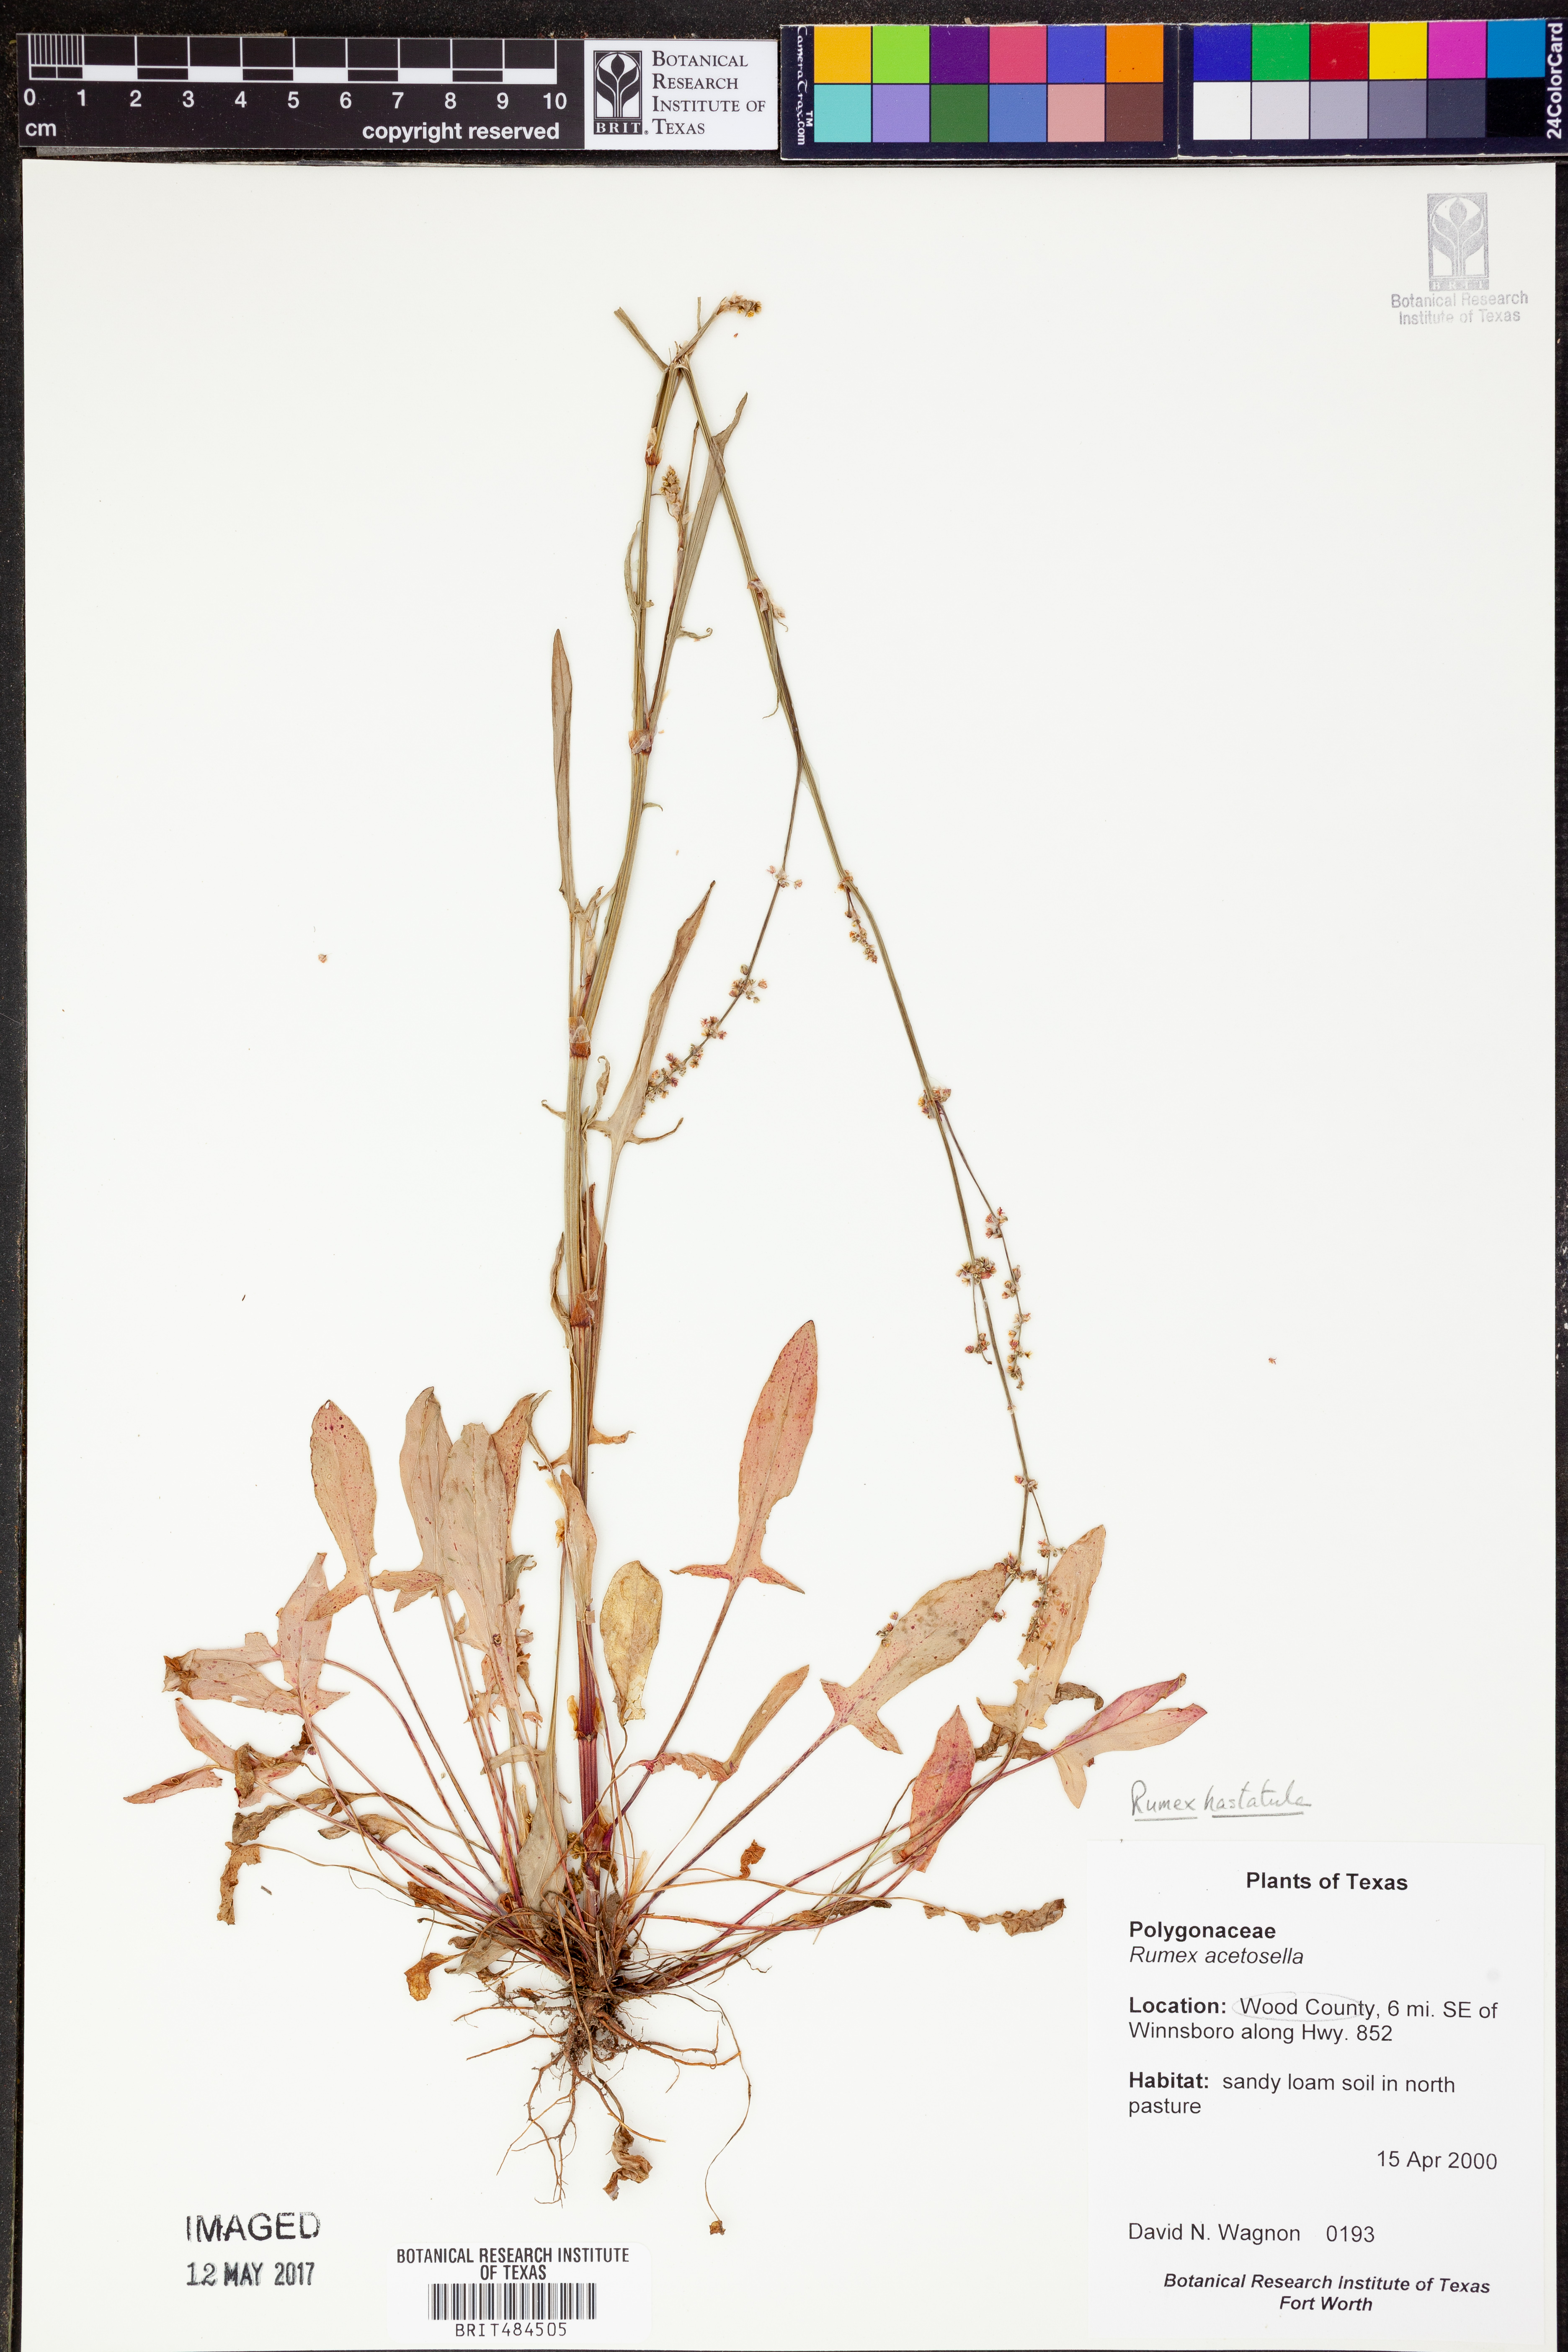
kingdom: Plantae
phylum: Tracheophyta
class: Magnoliopsida
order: Caryophyllales
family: Polygonaceae
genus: Rumex
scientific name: Rumex acetosella
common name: Common sheep sorrel
